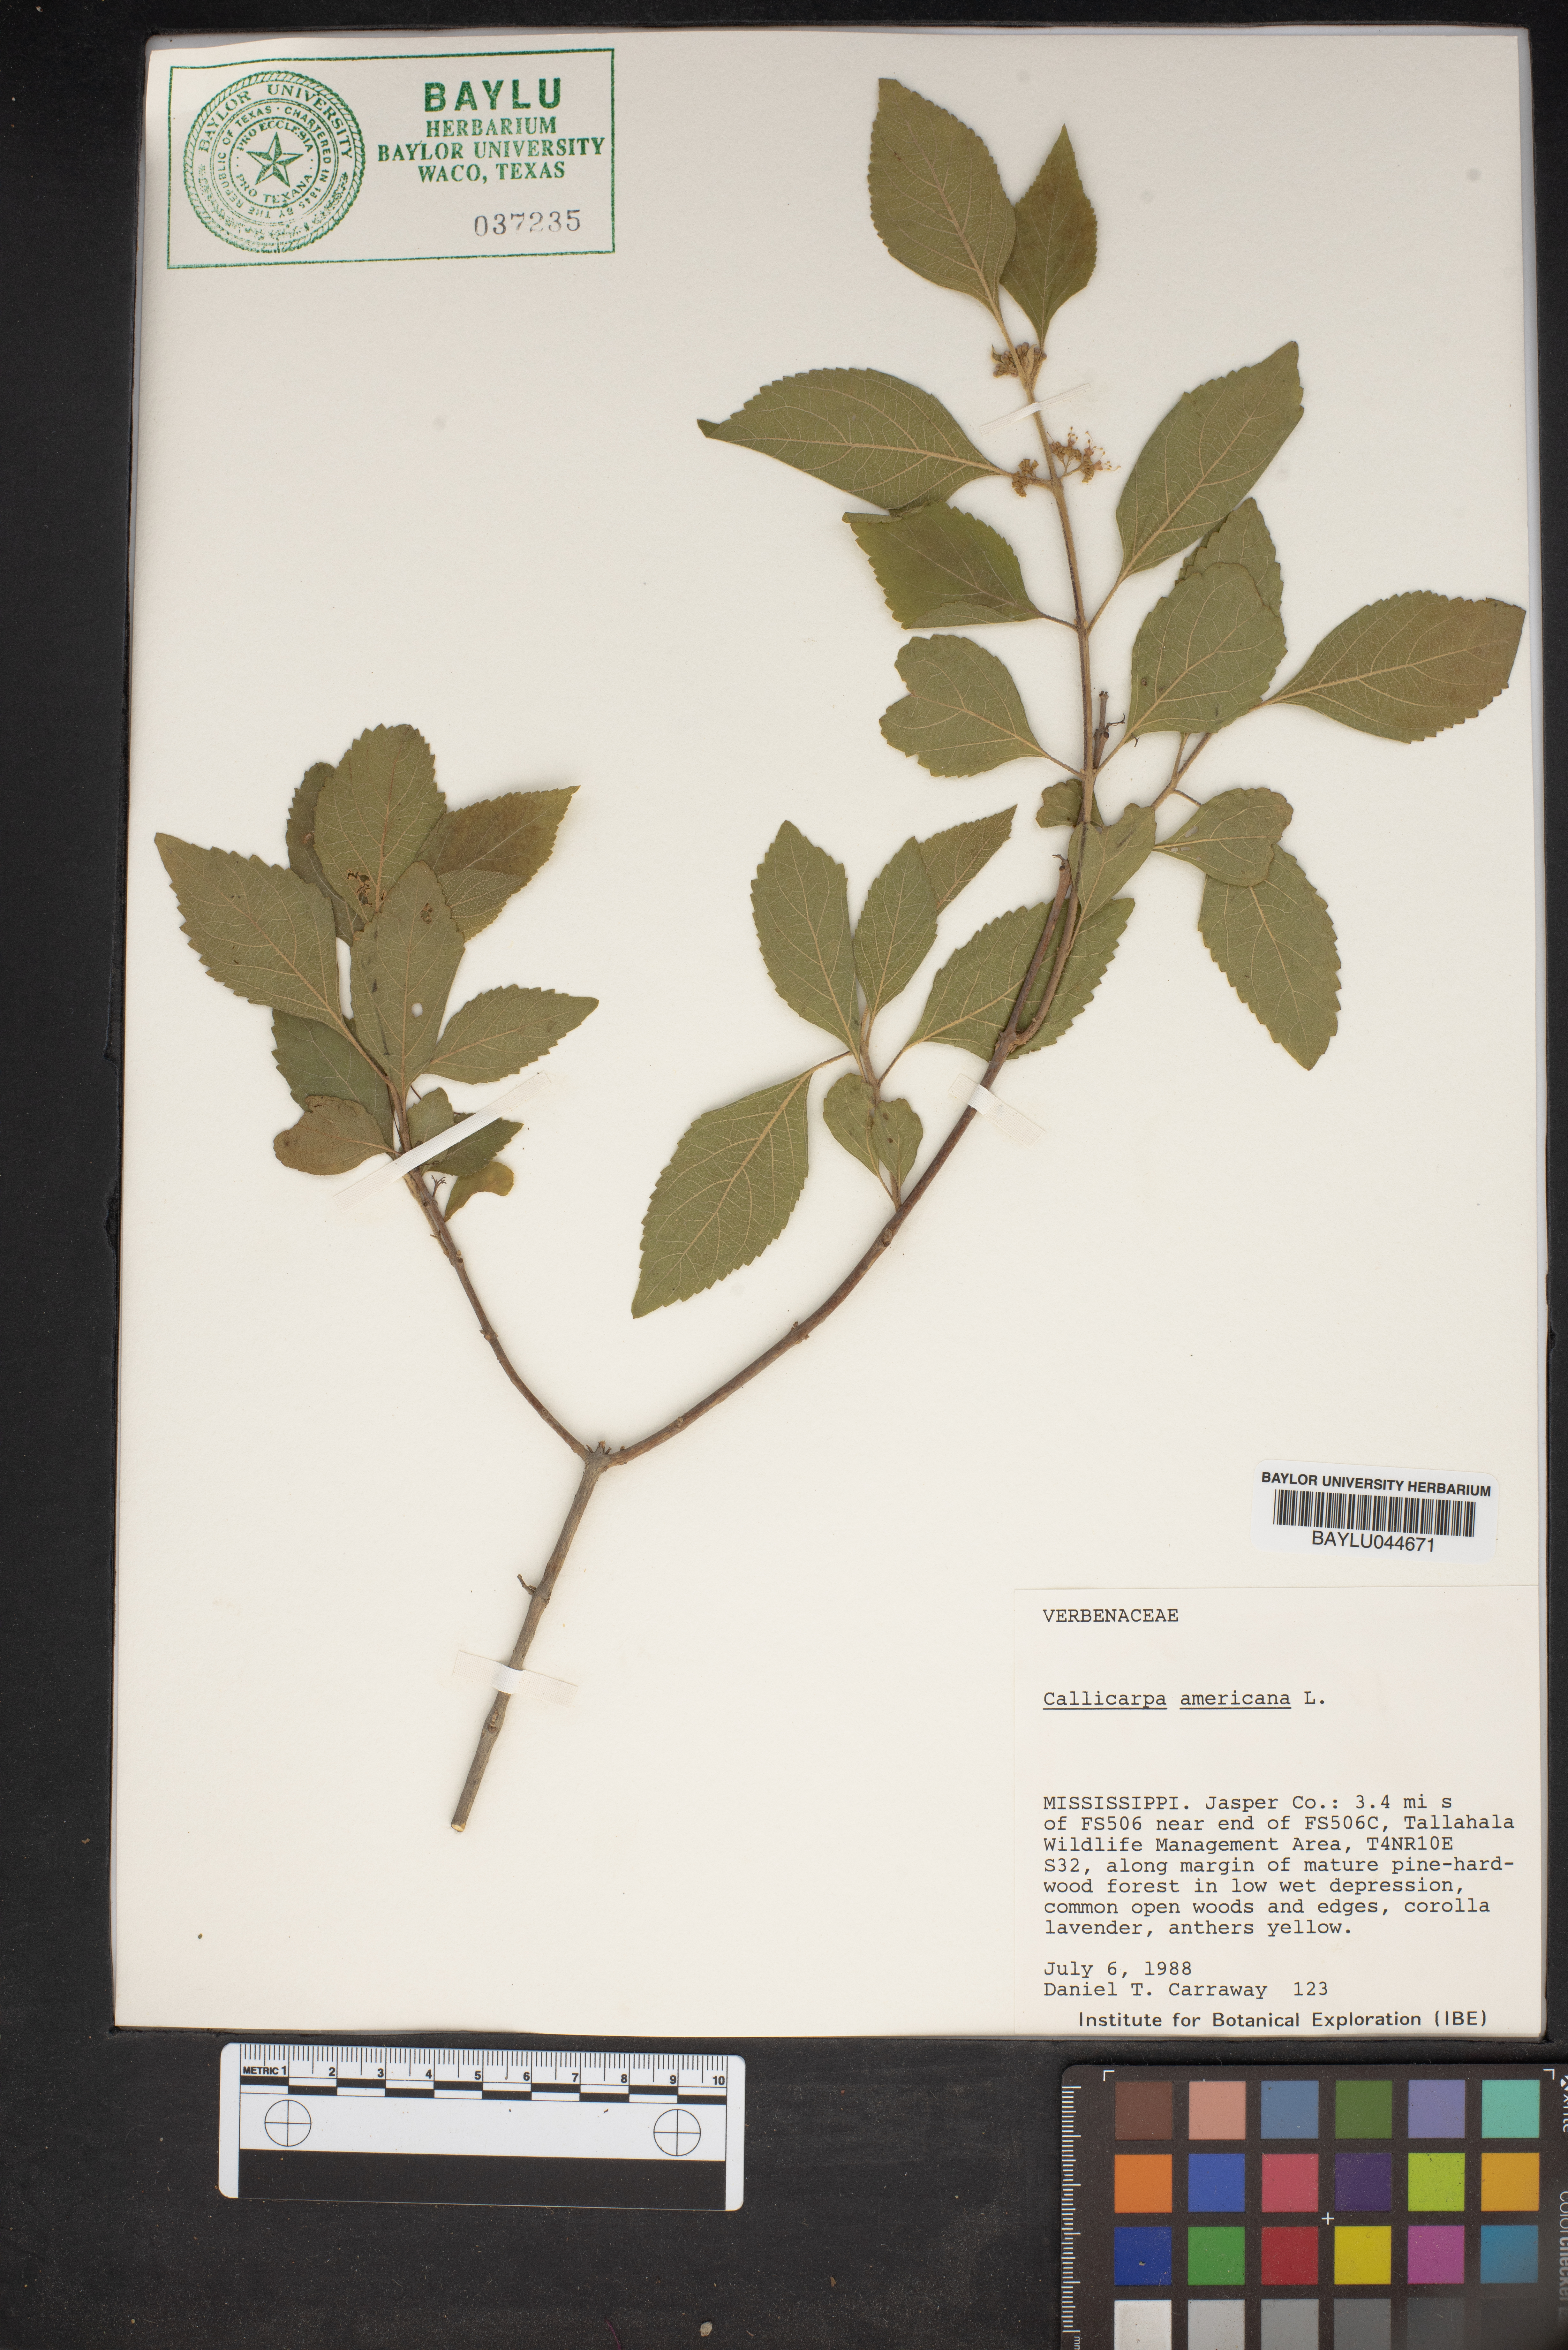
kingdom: Plantae
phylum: Tracheophyta
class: Magnoliopsida
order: Lamiales
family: Lamiaceae
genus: Callicarpa
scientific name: Callicarpa americana
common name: American beautyberry
